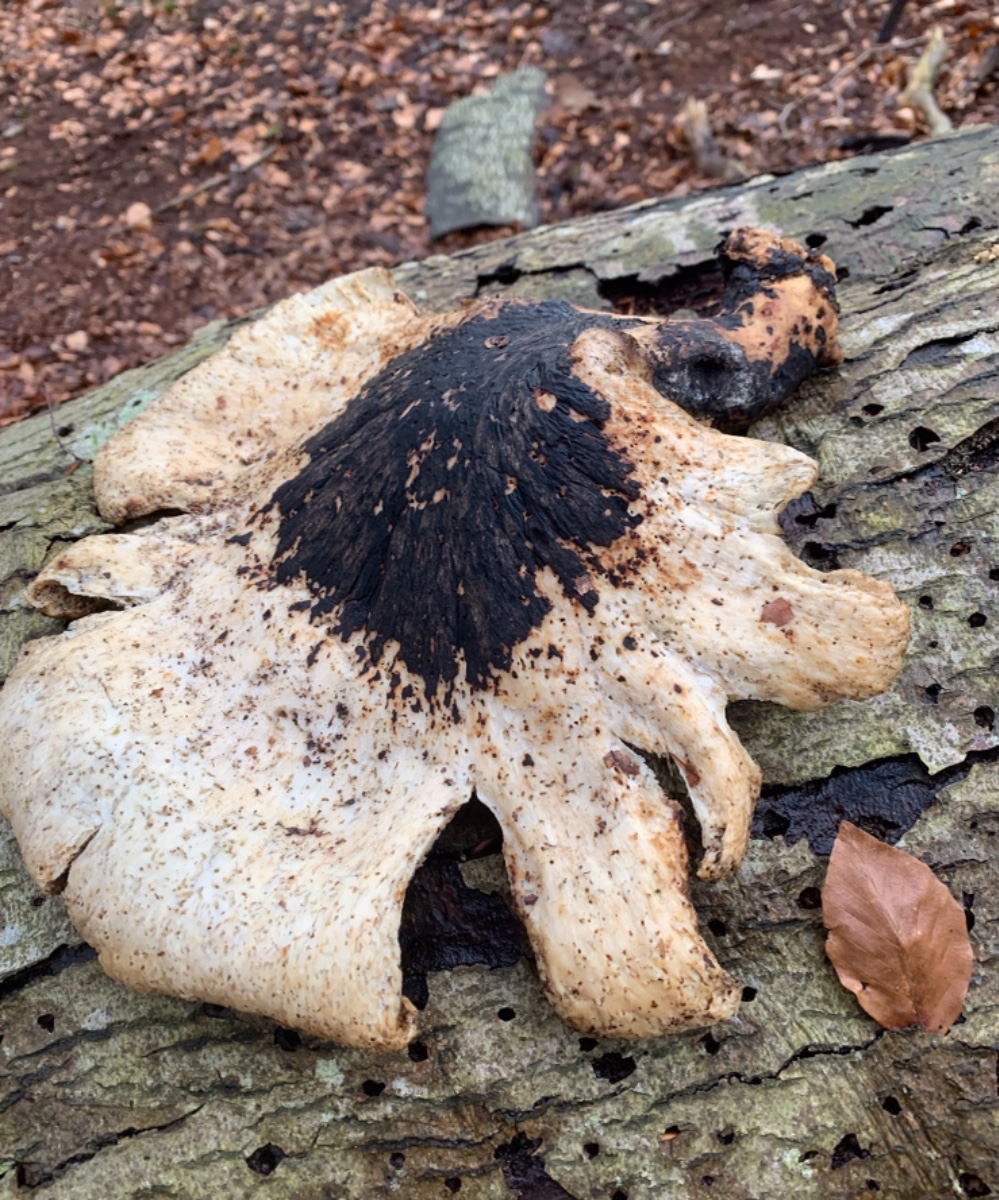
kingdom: Fungi
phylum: Basidiomycota
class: Agaricomycetes
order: Polyporales
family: Polyporaceae
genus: Cerioporus
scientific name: Cerioporus squamosus
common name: skællet stilkporesvamp
